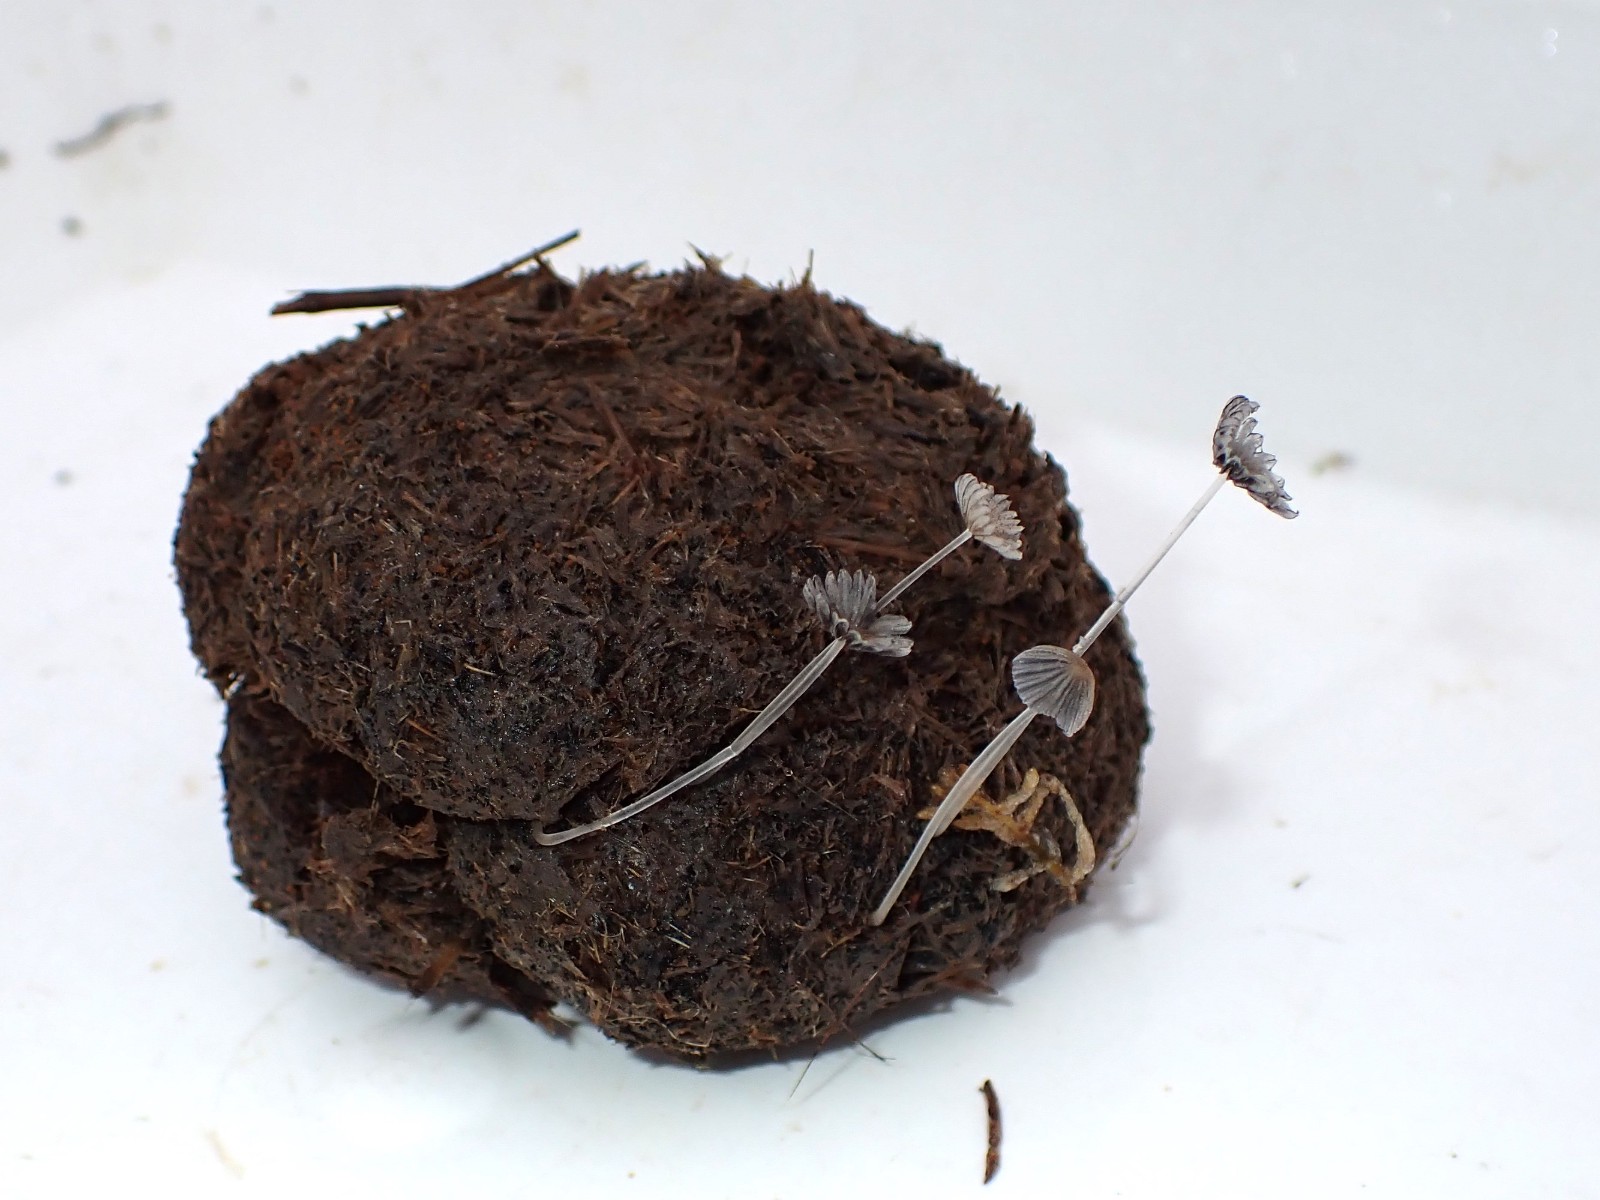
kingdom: Fungi
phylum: Basidiomycota
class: Agaricomycetes
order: Agaricales
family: Psathyrellaceae
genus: Parasola
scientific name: Parasola misera
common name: lillebitte hjulhat
